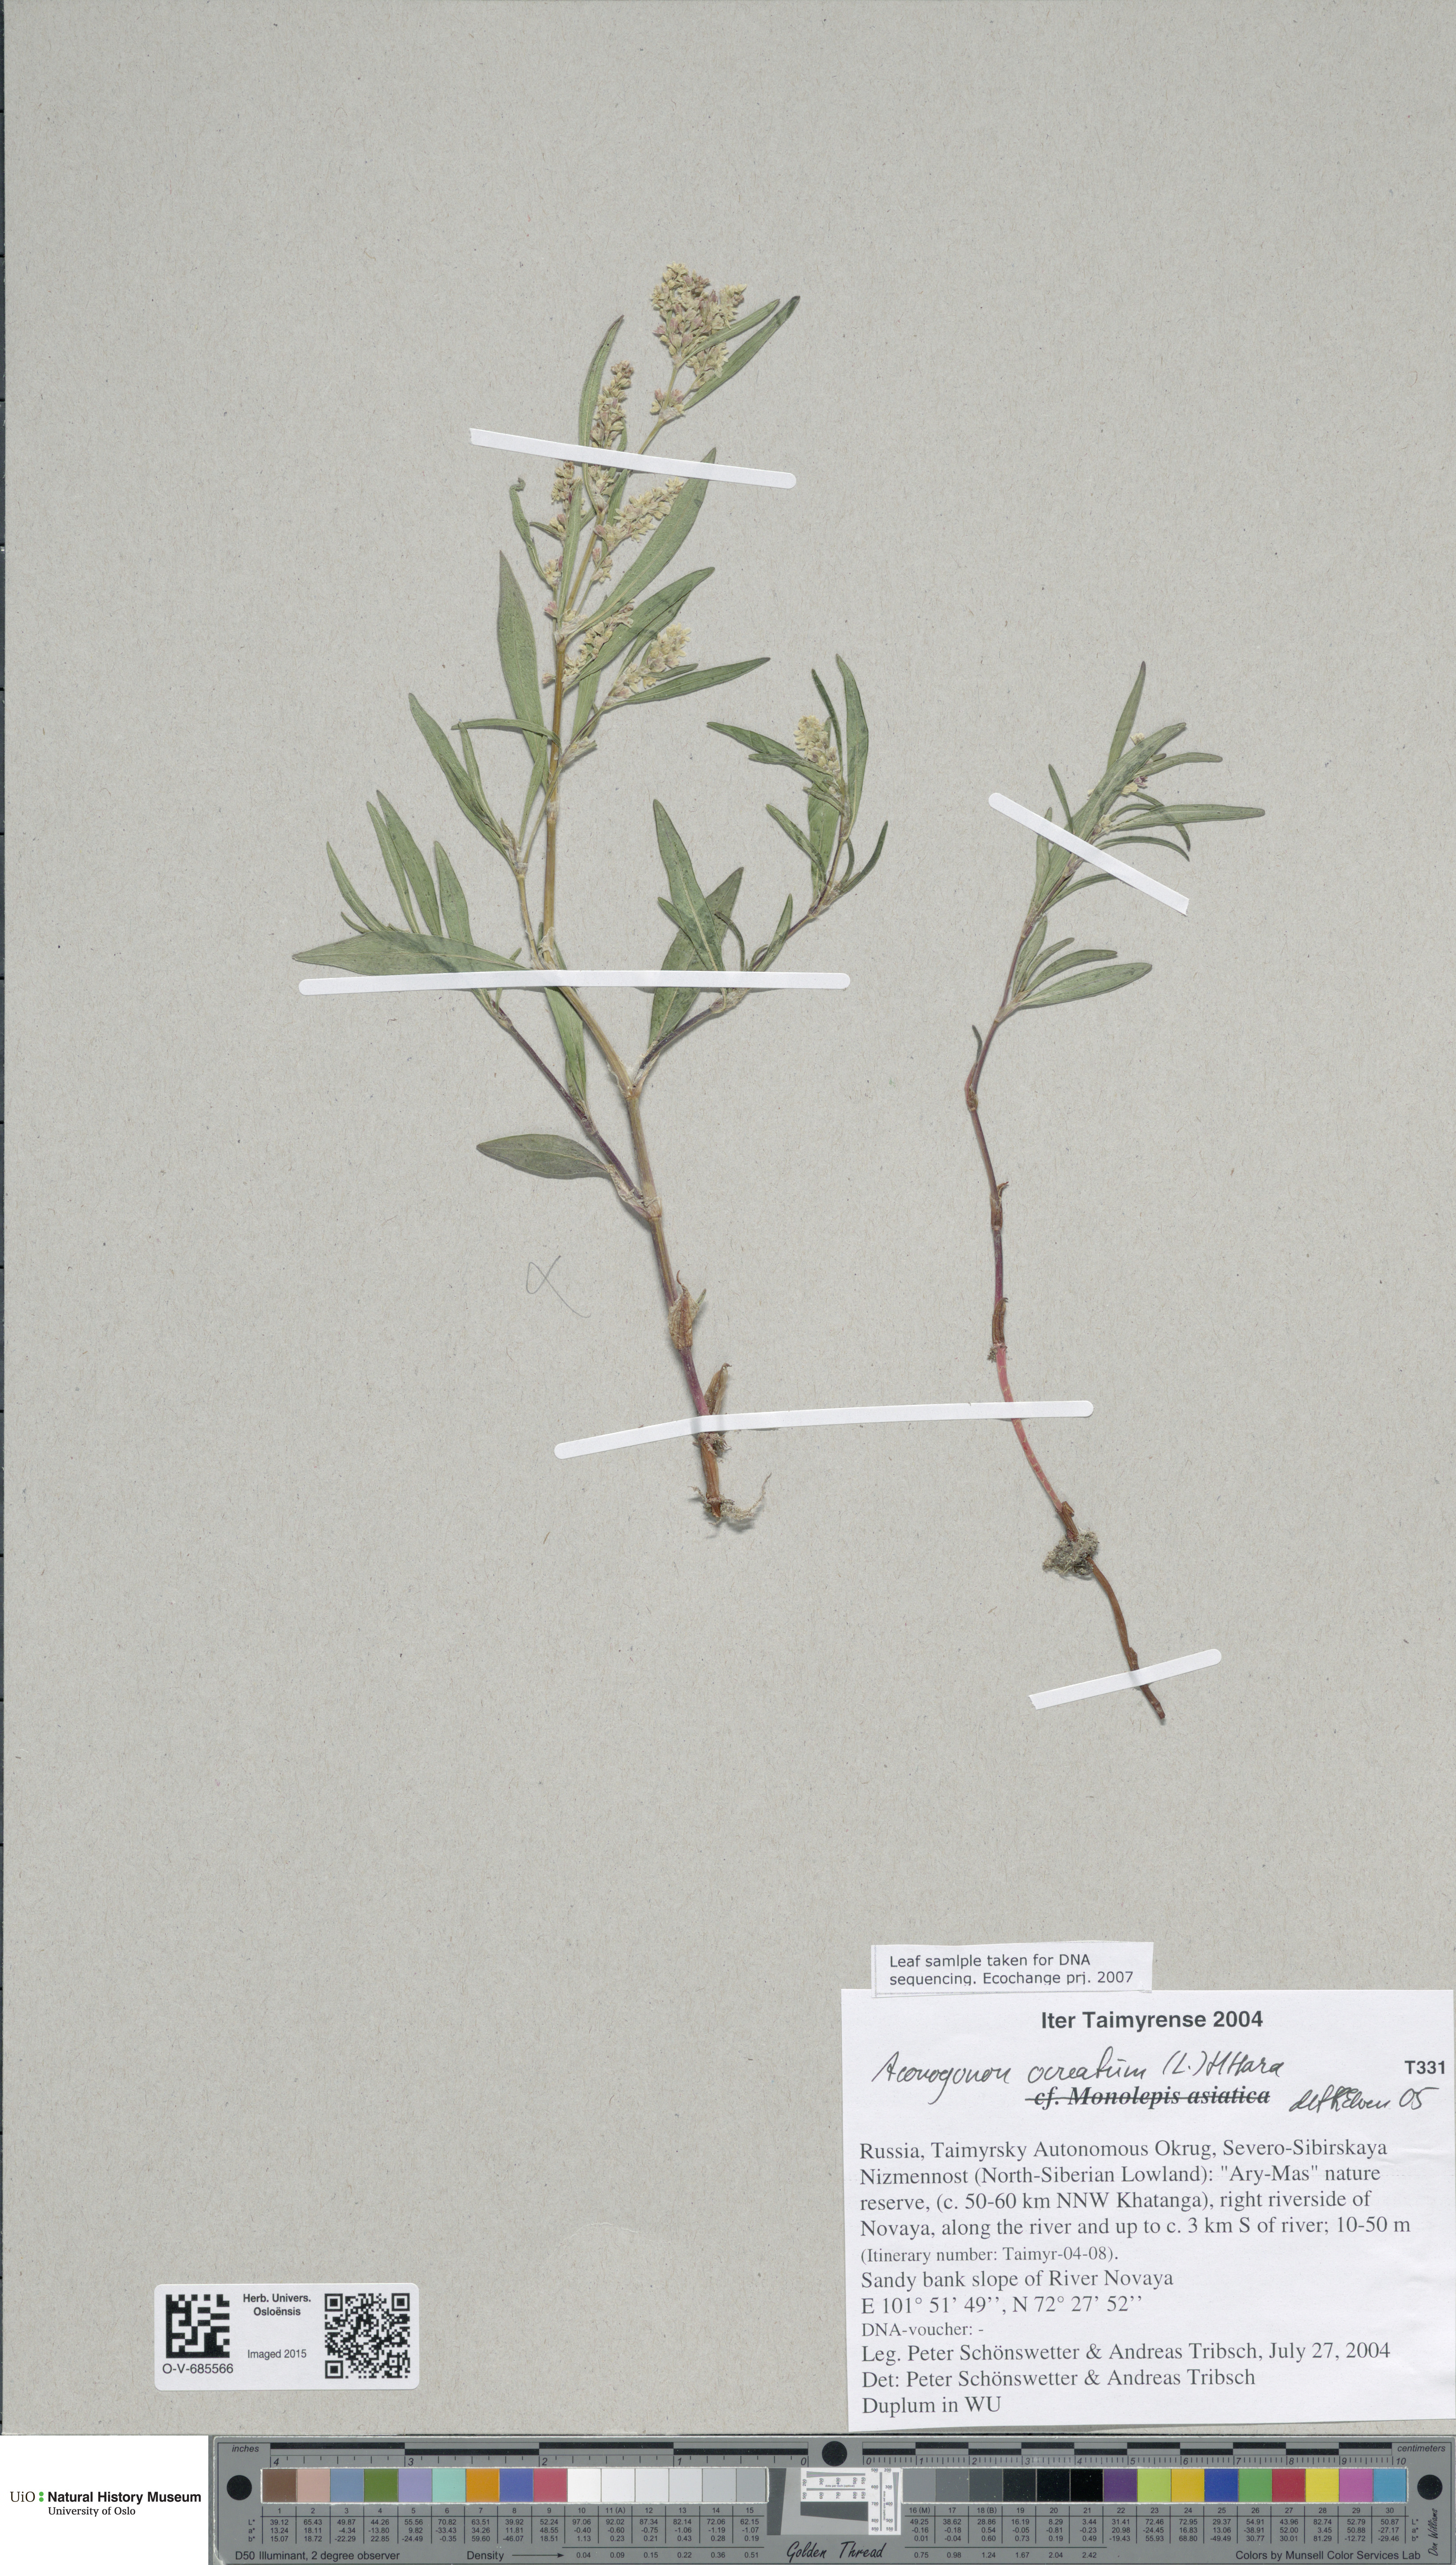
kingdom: Plantae
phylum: Tracheophyta
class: Magnoliopsida
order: Caryophyllales
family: Polygonaceae
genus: Koenigia
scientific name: Koenigia ocreata
